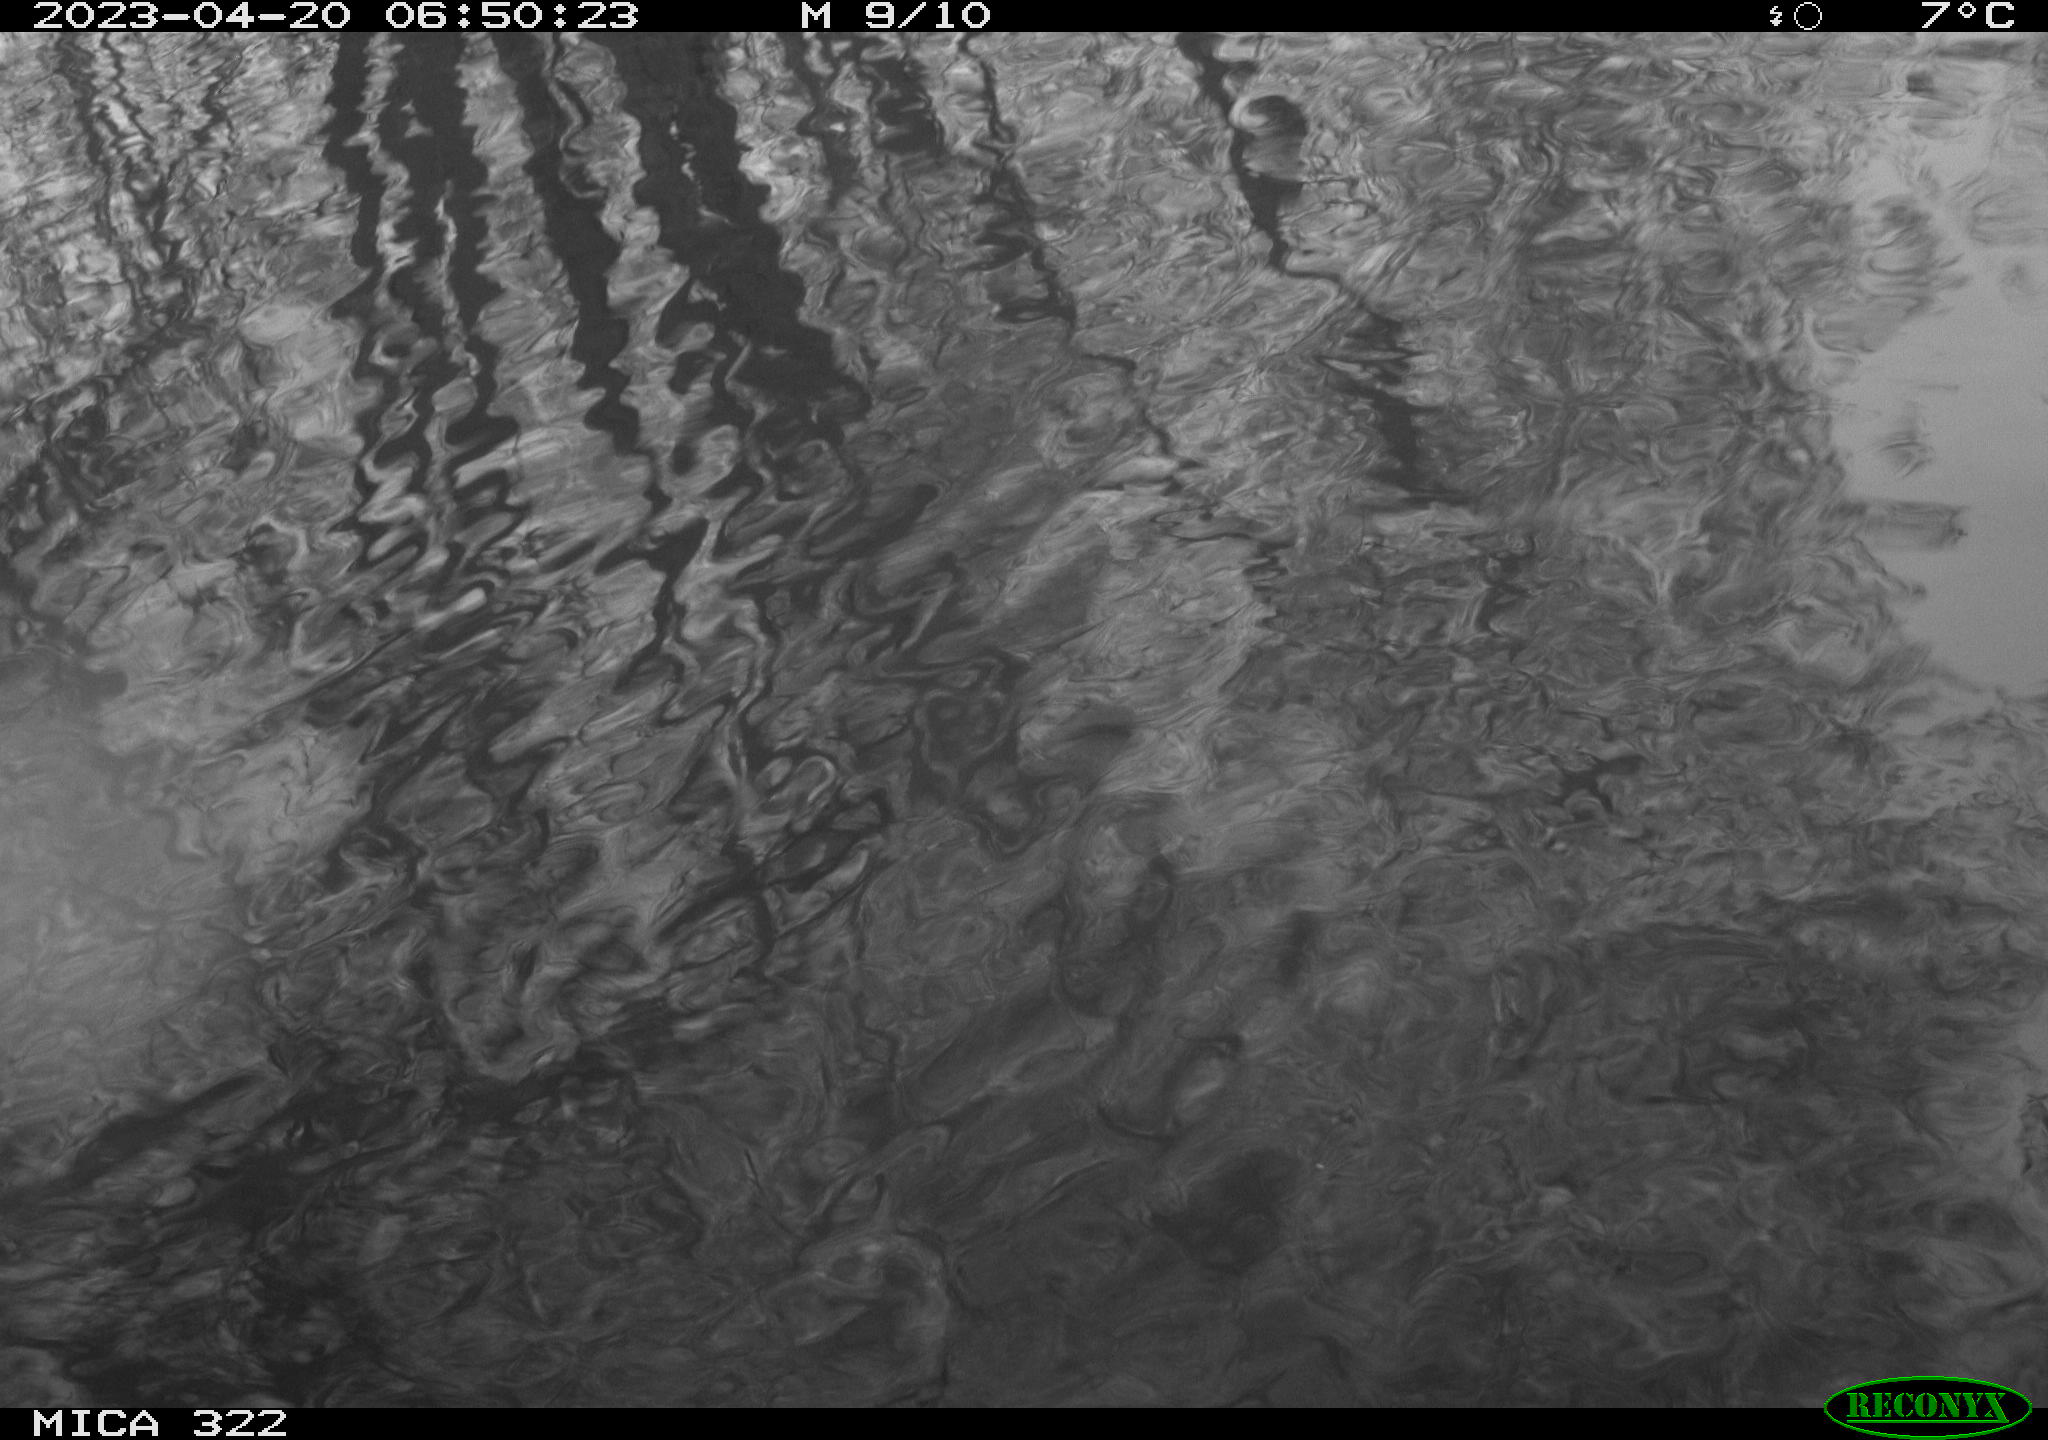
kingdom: Animalia
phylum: Chordata
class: Aves
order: Anseriformes
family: Anatidae
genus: Anas
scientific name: Anas
